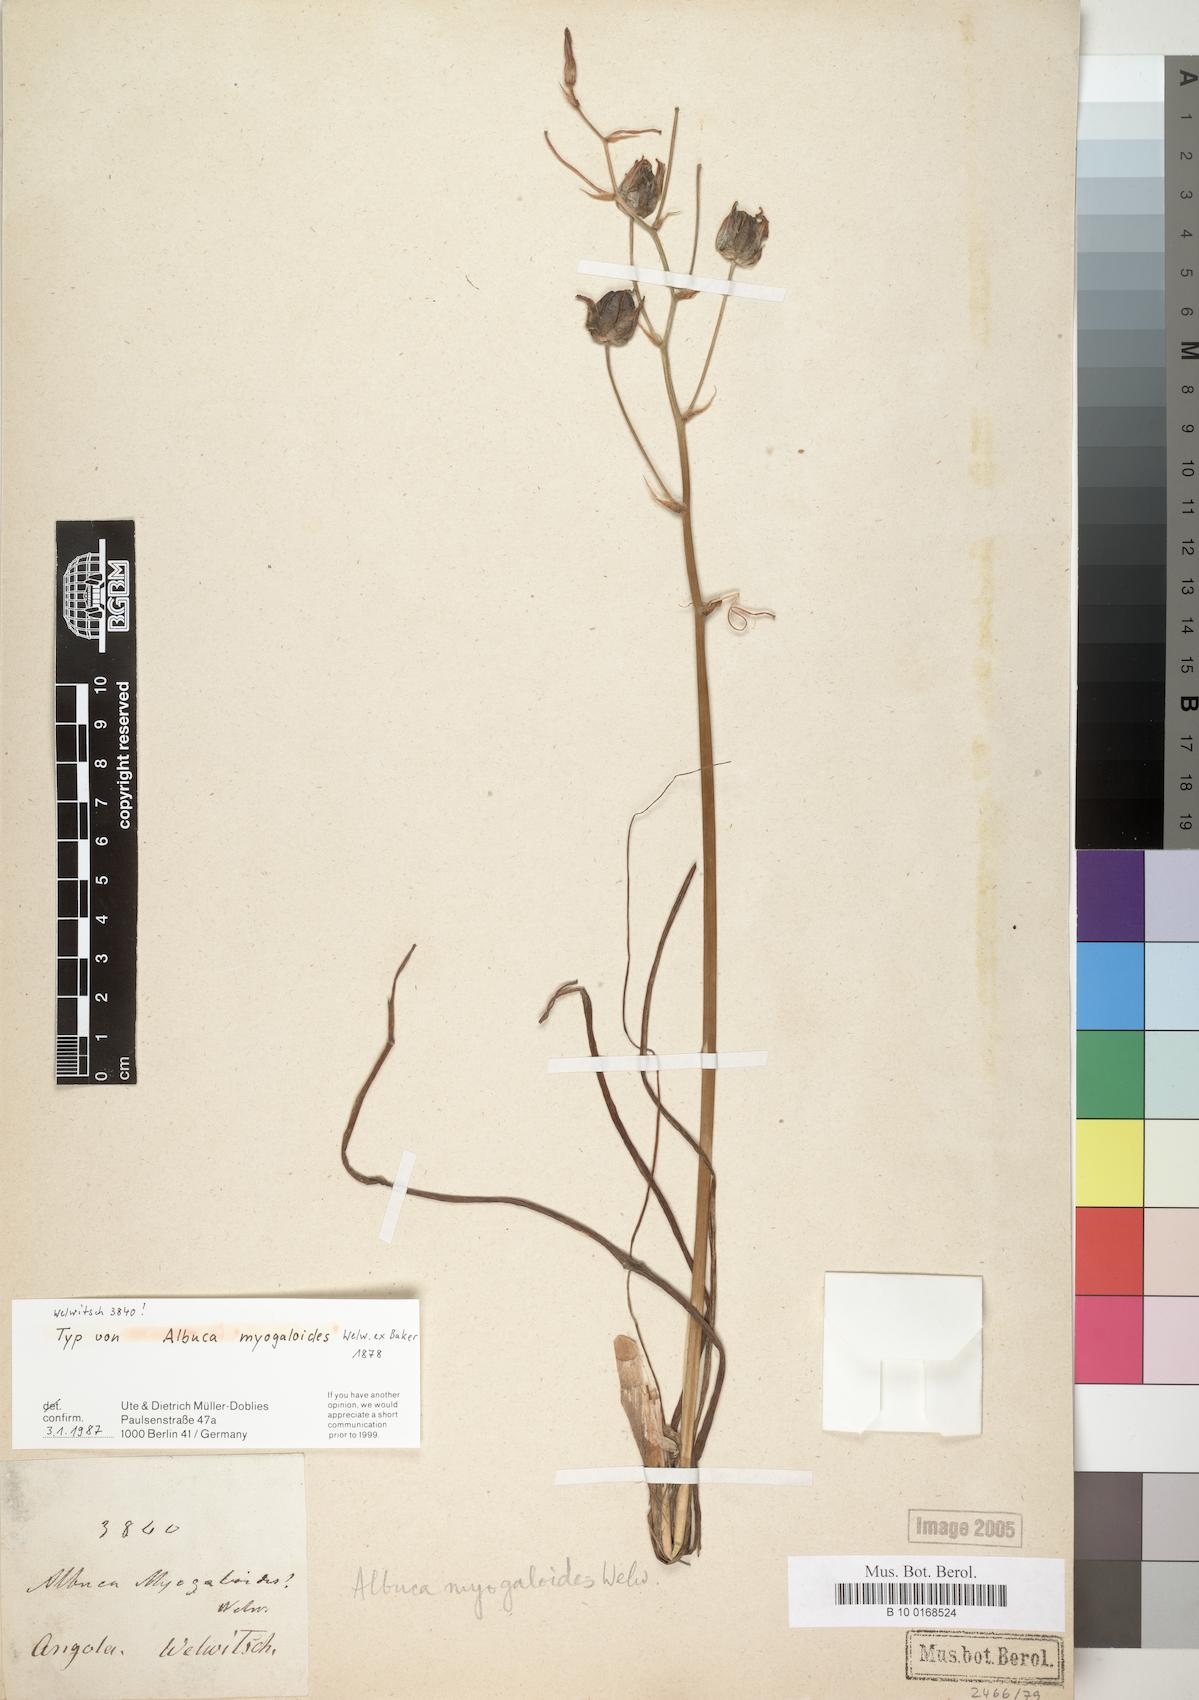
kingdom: Plantae
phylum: Tracheophyta
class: Liliopsida
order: Asparagales
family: Asparagaceae
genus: Albuca
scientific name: Albuca myogaloides
